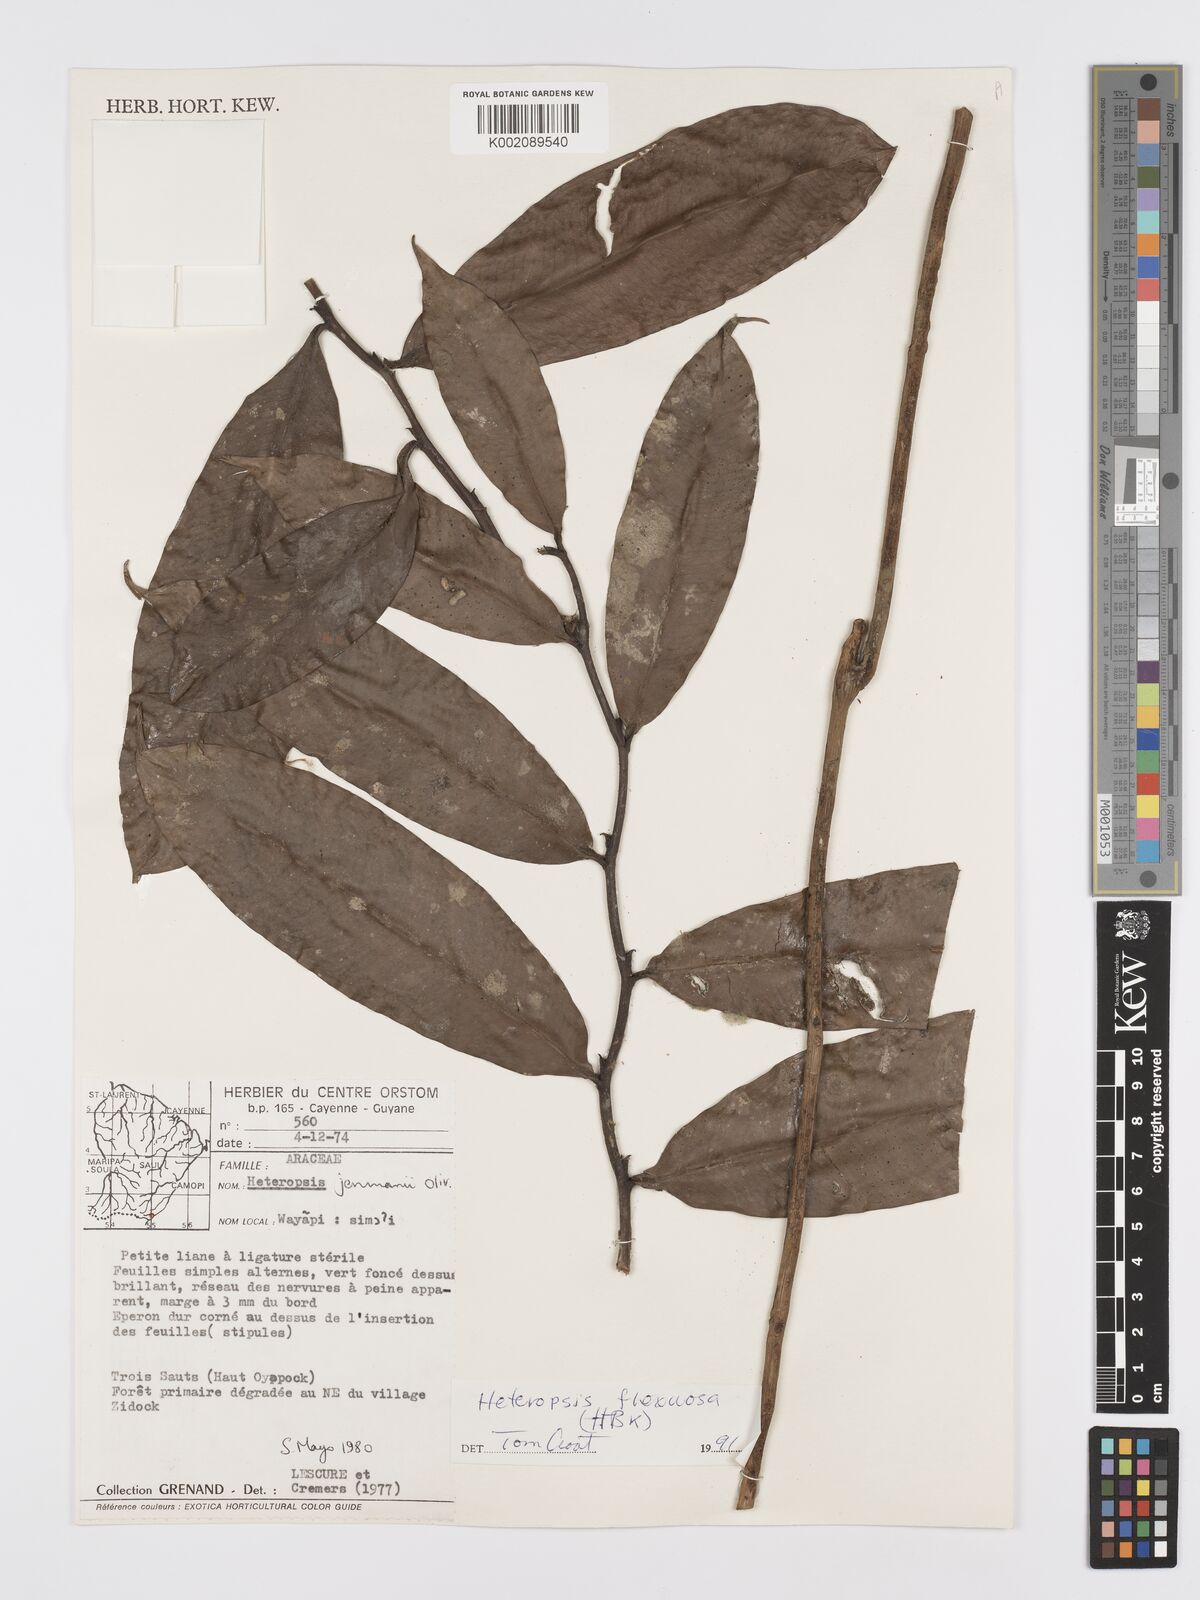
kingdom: Plantae
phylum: Tracheophyta
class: Liliopsida
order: Alismatales
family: Araceae
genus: Heteropsis
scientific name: Heteropsis flexuosa
